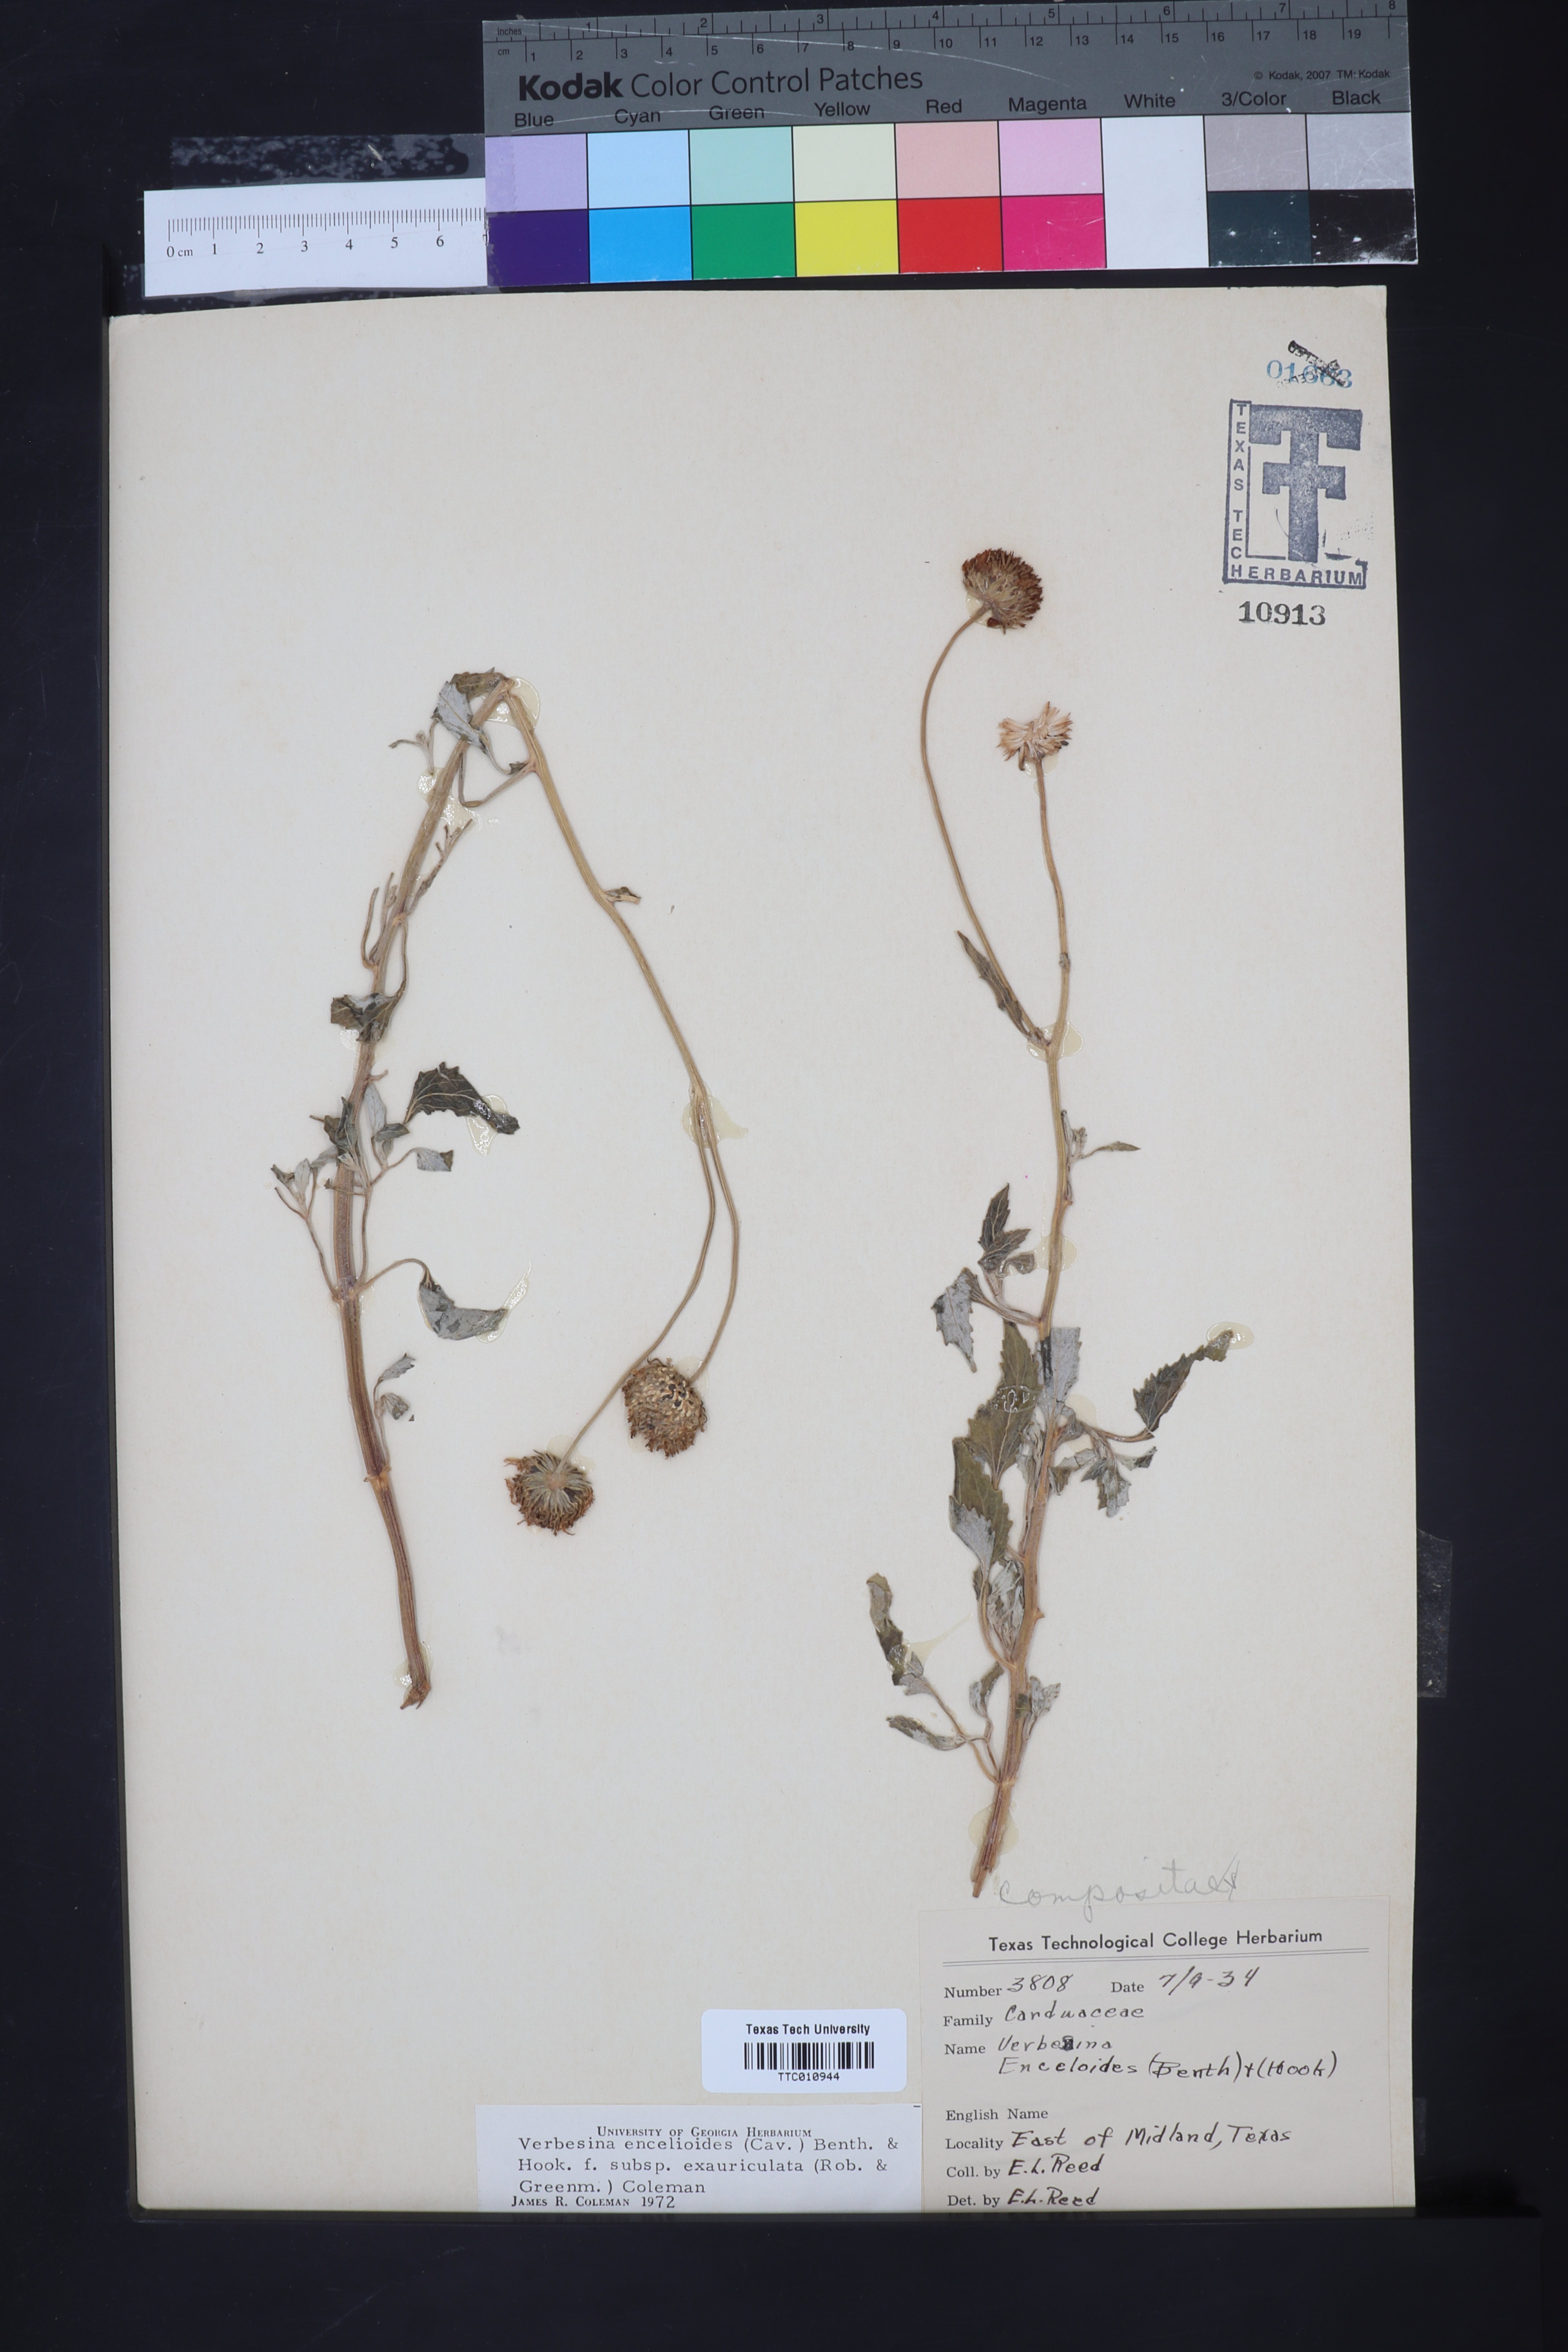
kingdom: Plantae
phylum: Tracheophyta
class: Magnoliopsida
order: Asterales
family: Asteraceae
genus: Verbesina
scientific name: Verbesina encelioides
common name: Golden crownbeard
